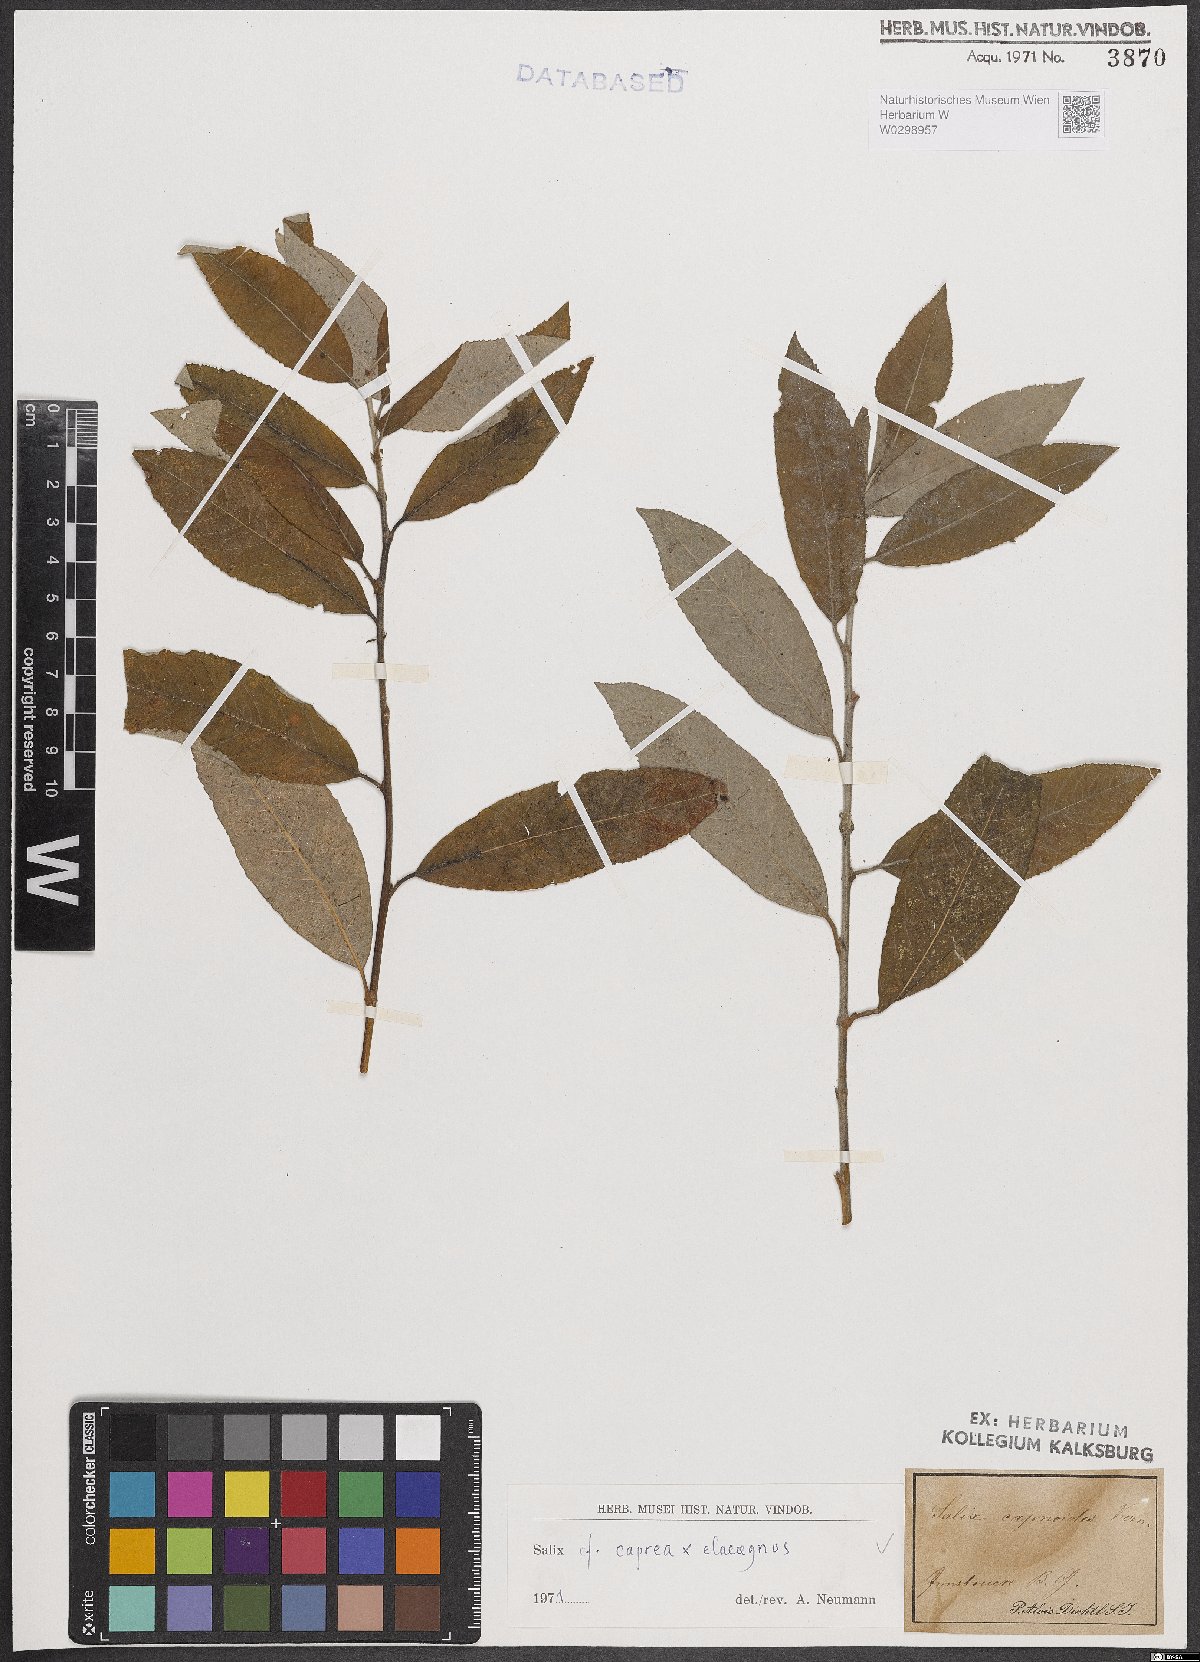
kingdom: Plantae
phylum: Tracheophyta
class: Magnoliopsida
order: Malpighiales
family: Salicaceae
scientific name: Salicaceae
